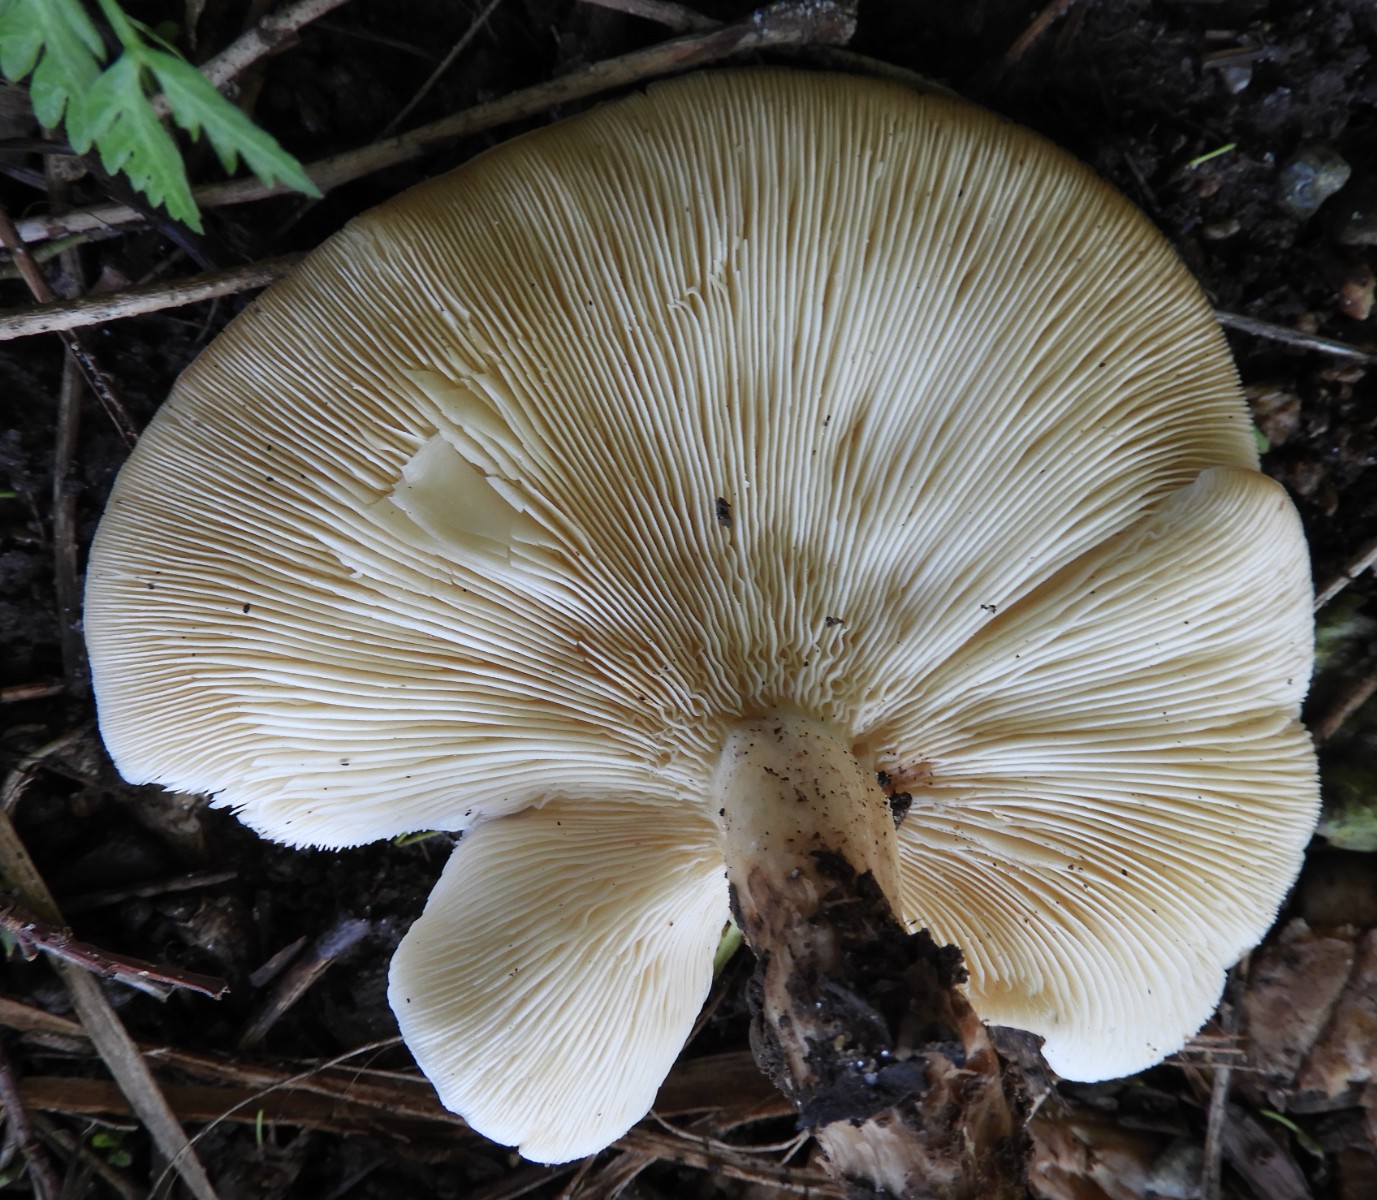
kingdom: Fungi
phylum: Basidiomycota
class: Agaricomycetes
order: Agaricales
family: Lyophyllaceae
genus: Calocybe
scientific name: Calocybe gambosa
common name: vårmusseron
